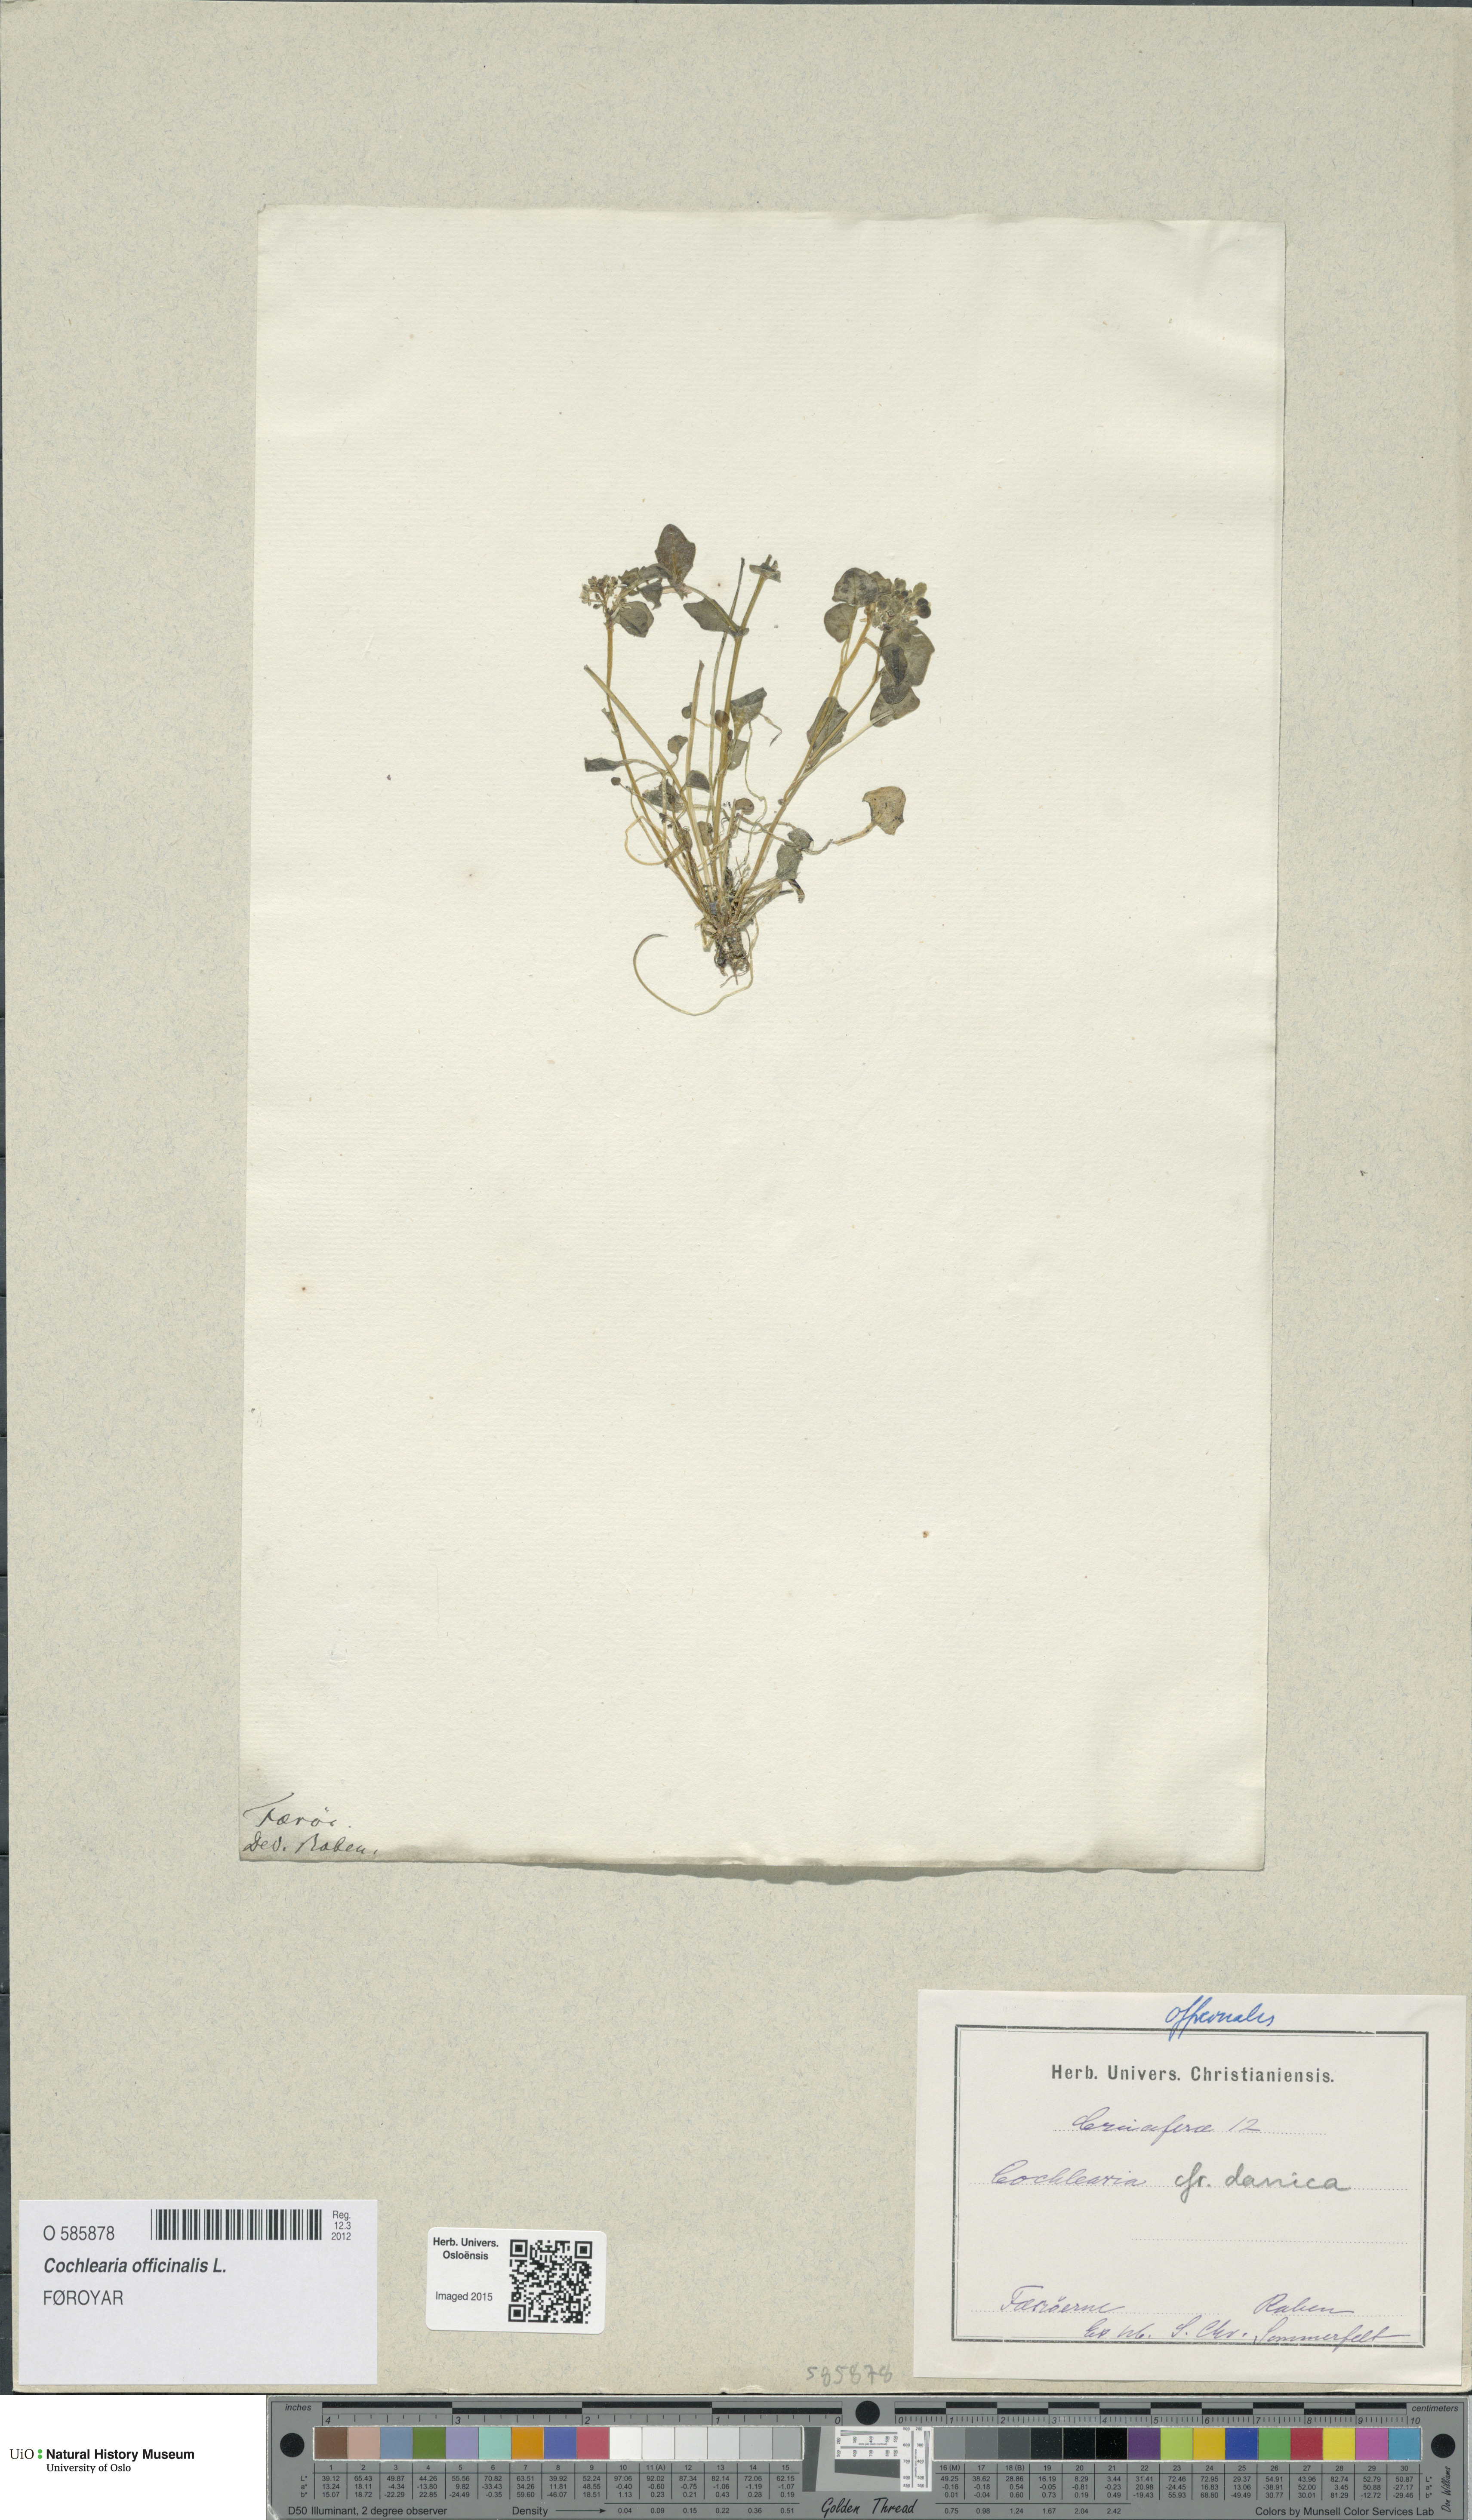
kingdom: Plantae
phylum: Tracheophyta
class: Magnoliopsida
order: Brassicales
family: Brassicaceae
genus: Cochlearia
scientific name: Cochlearia officinalis
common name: Scurvy-grass
